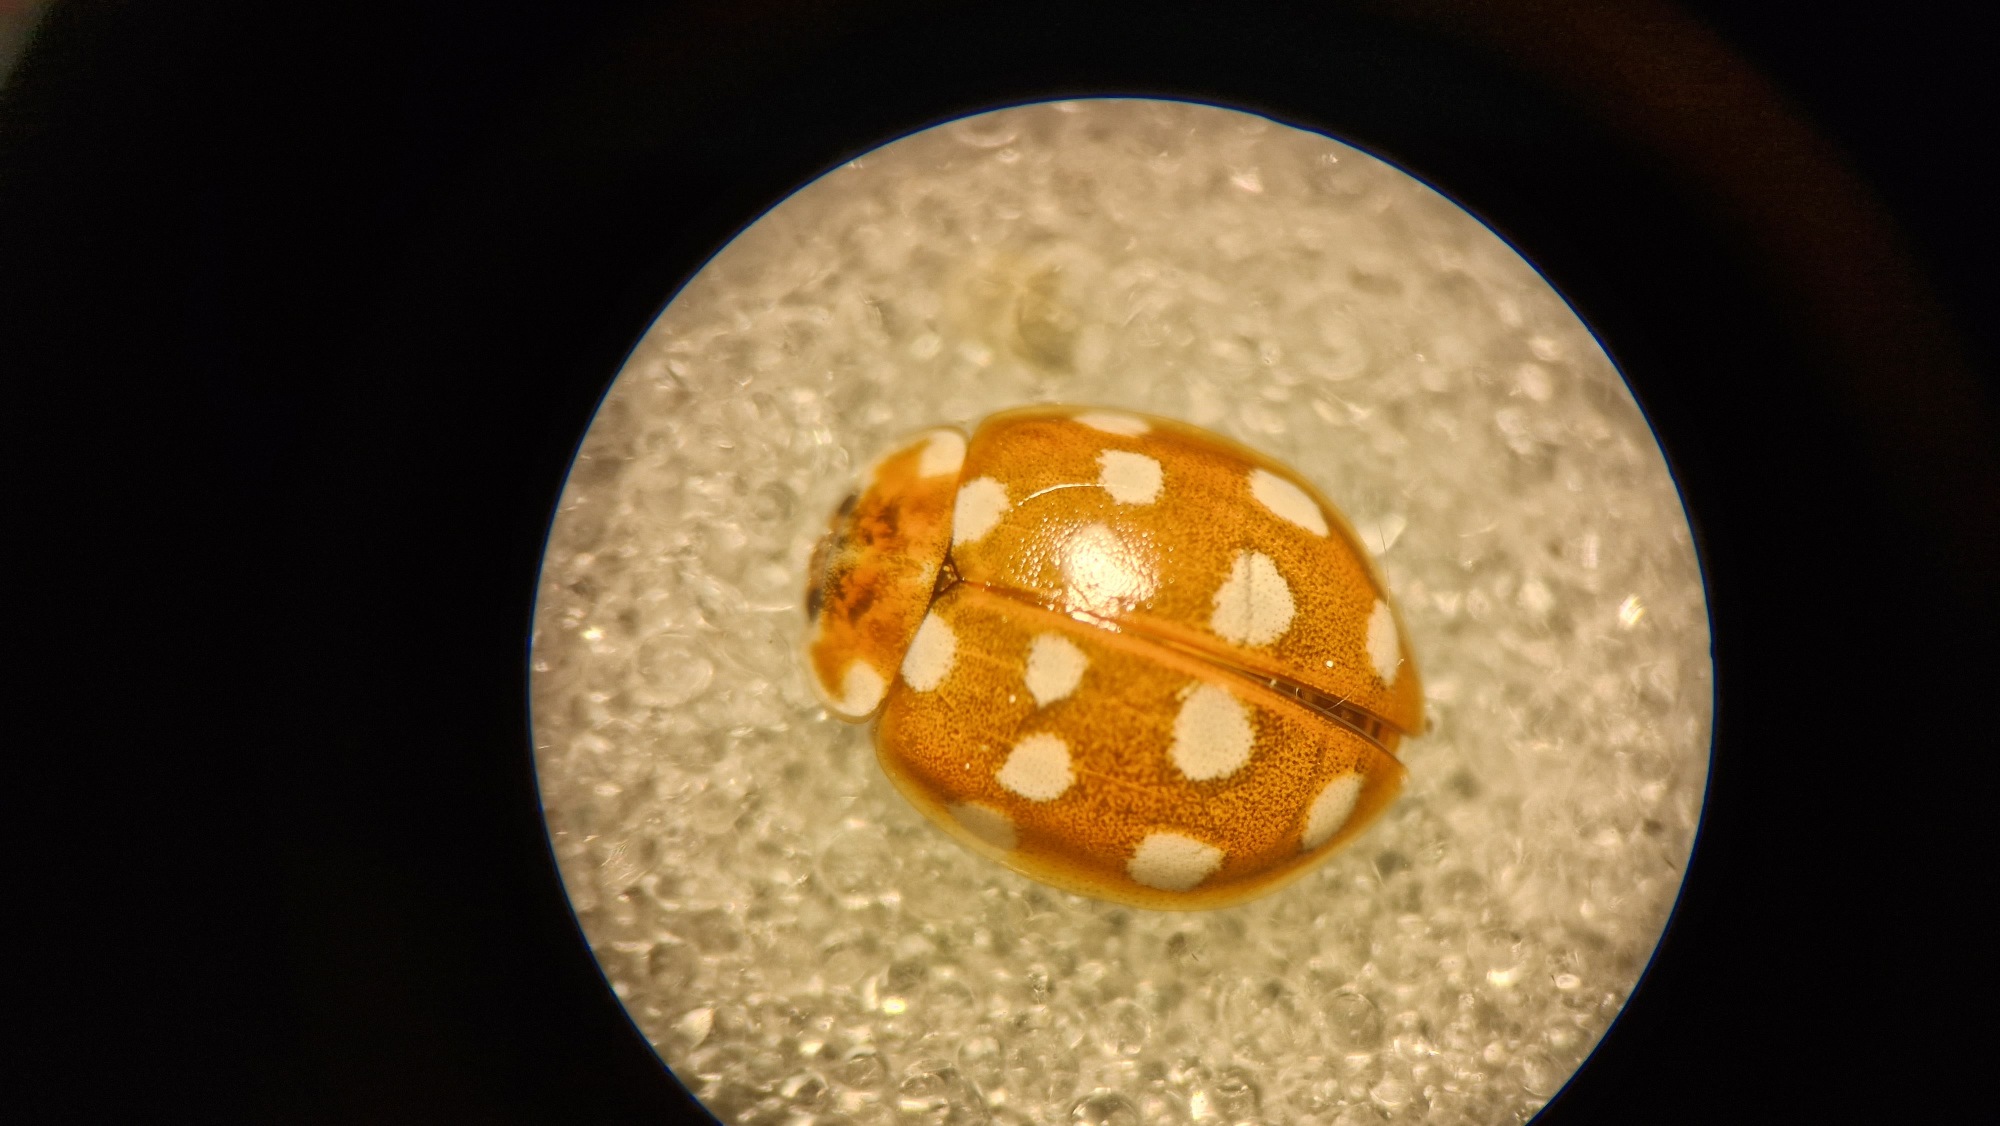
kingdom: Animalia
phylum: Arthropoda
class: Insecta
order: Coleoptera
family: Coccinellidae
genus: Calvia
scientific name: Calvia quatuordecimguttata
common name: Fjortenplettet mariehøne
